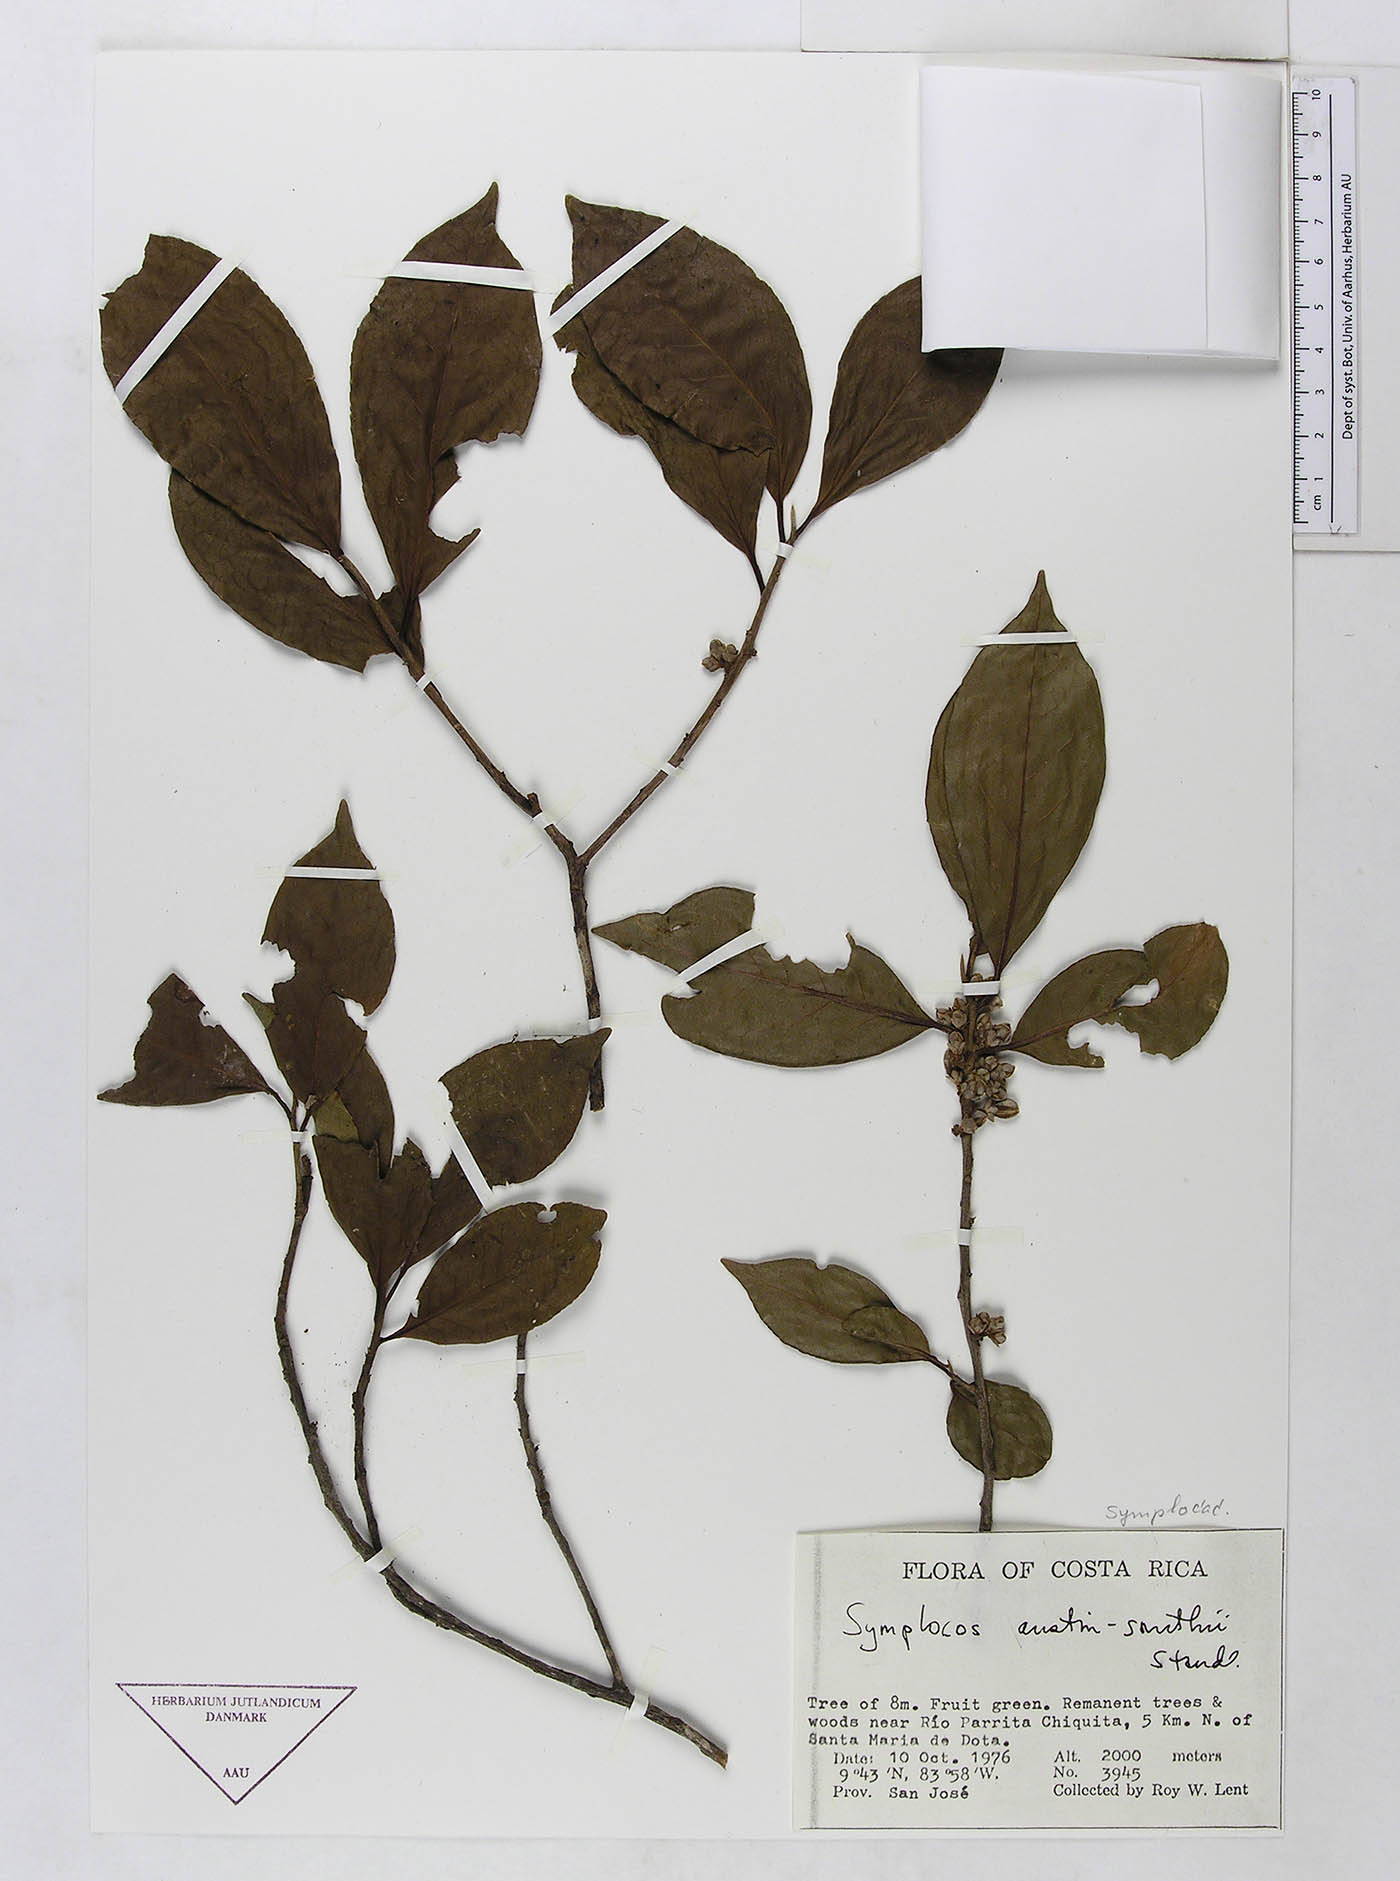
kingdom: Plantae
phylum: Tracheophyta
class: Magnoliopsida
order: Ericales
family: Symplocaceae
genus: Symplocos
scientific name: Symplocos austin-smithii
